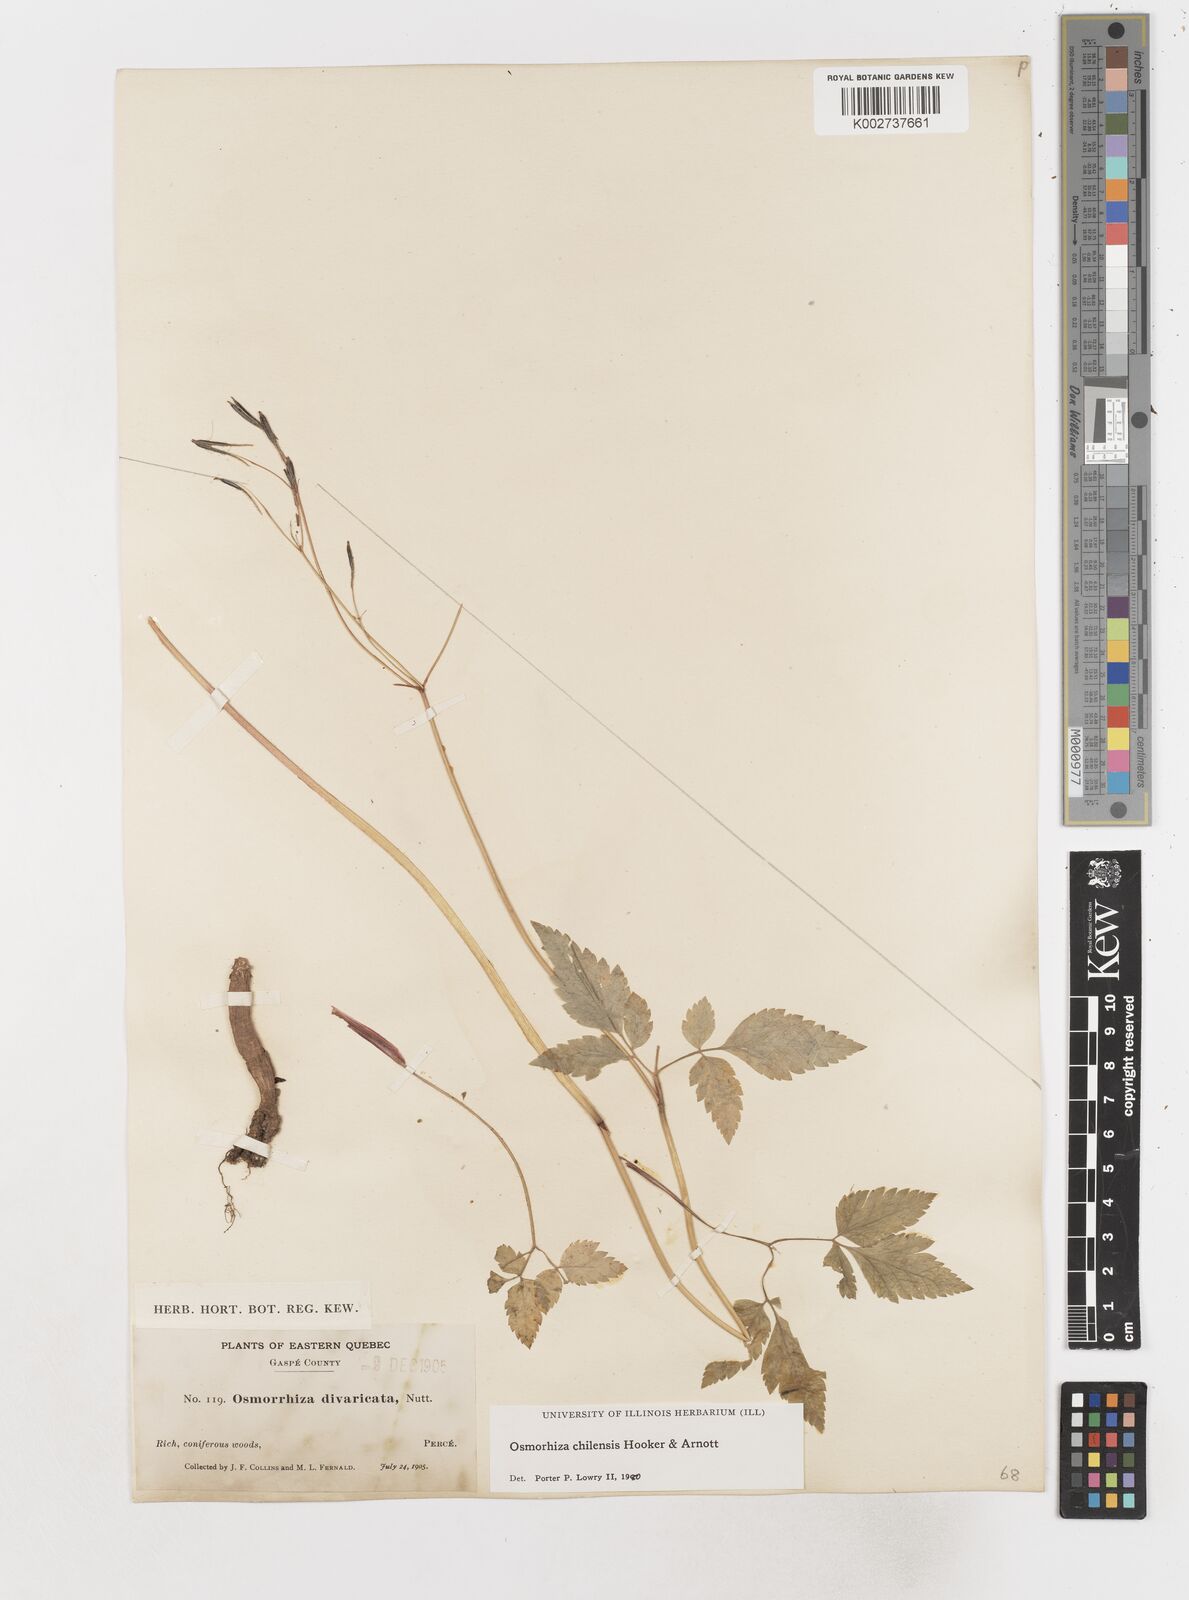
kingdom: Plantae
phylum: Tracheophyta
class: Magnoliopsida
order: Apiales
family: Apiaceae
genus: Osmorhiza
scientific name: Osmorhiza berteroi
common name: Mountain sweet cicely
